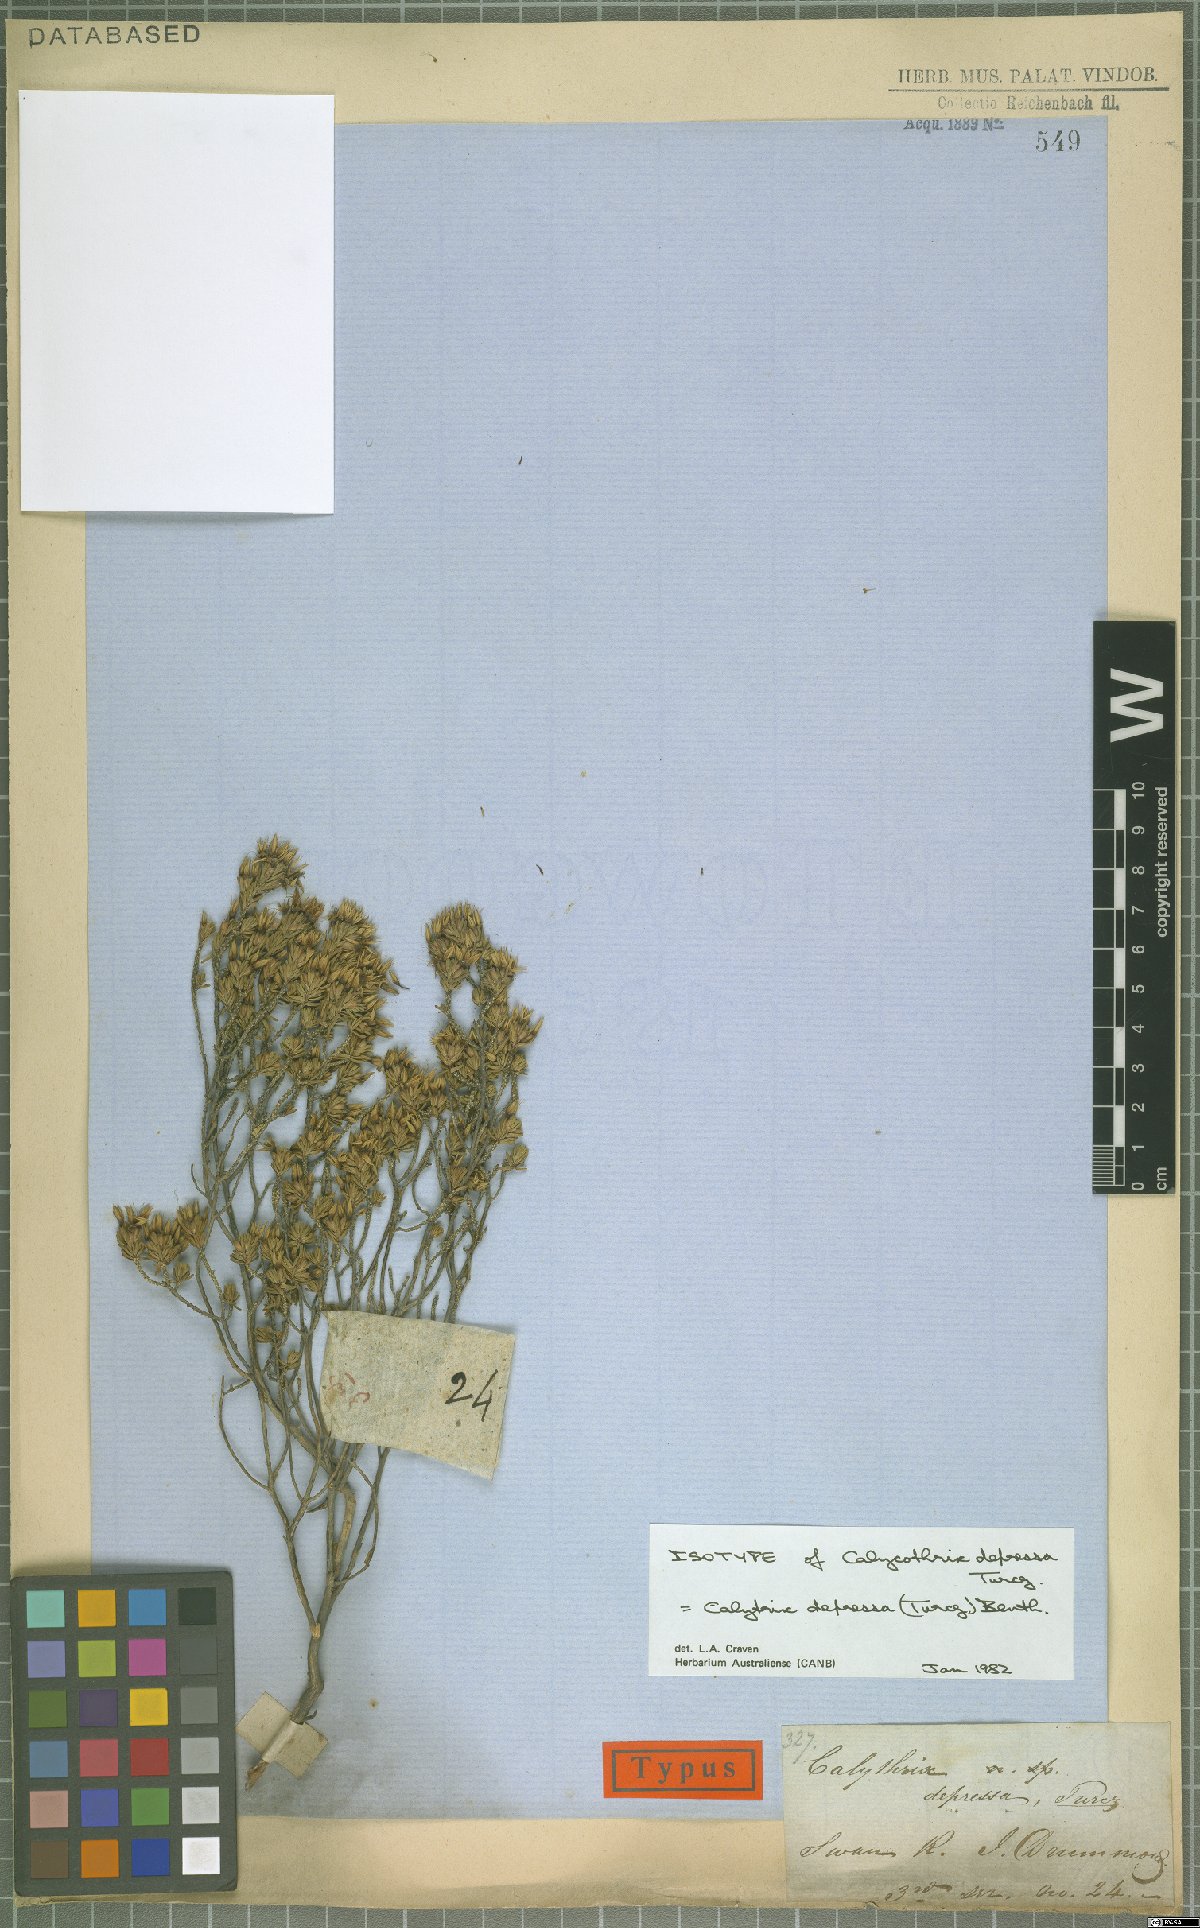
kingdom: Plantae
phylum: Tracheophyta
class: Magnoliopsida
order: Myrtales
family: Myrtaceae
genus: Calytrix
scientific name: Calytrix depressa
